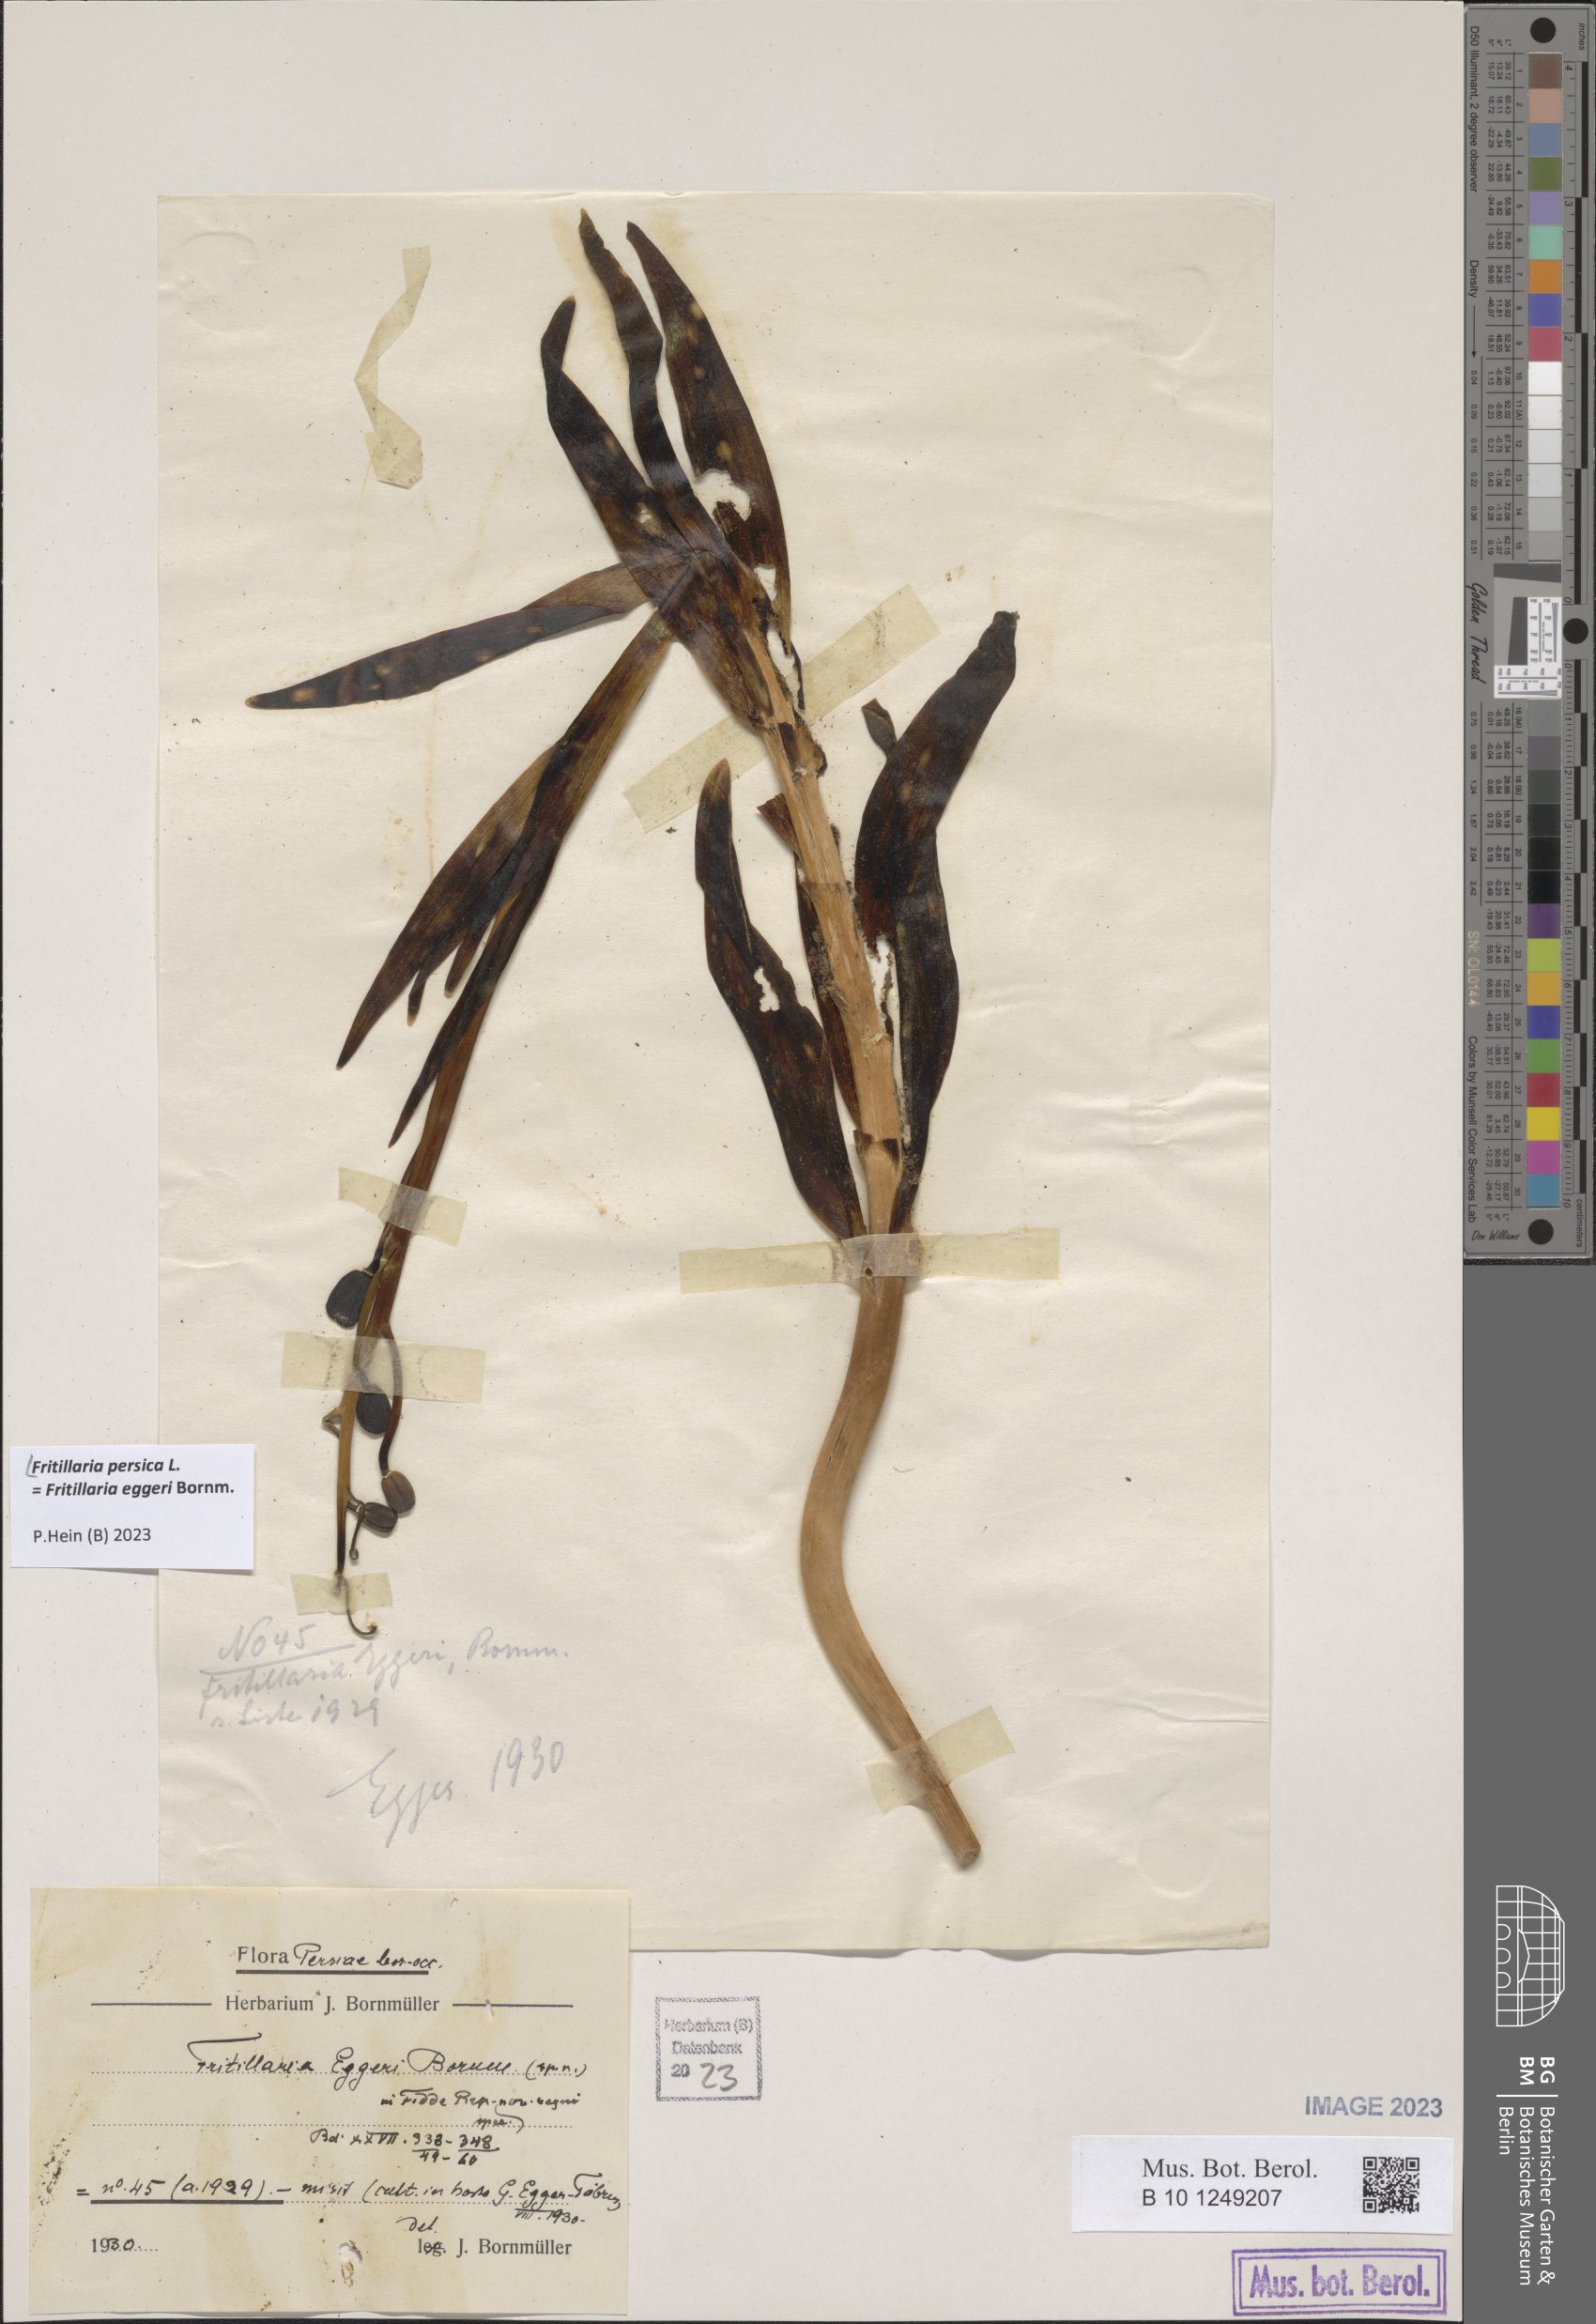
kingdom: Plantae
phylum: Tracheophyta
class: Liliopsida
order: Liliales
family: Liliaceae
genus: Fritillaria
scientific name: Fritillaria persica
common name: Persian fritillary
